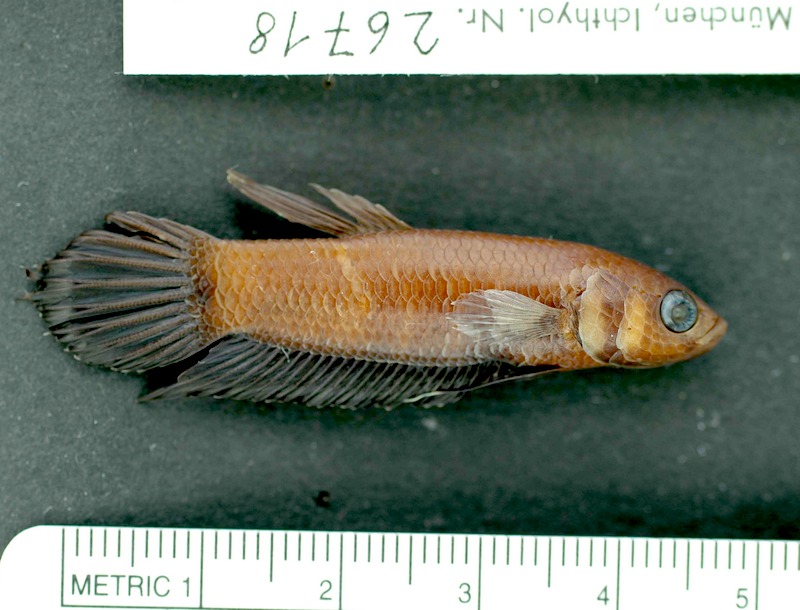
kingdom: Animalia
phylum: Chordata
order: Perciformes
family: Osphronemidae
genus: Betta
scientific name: Betta strohi
